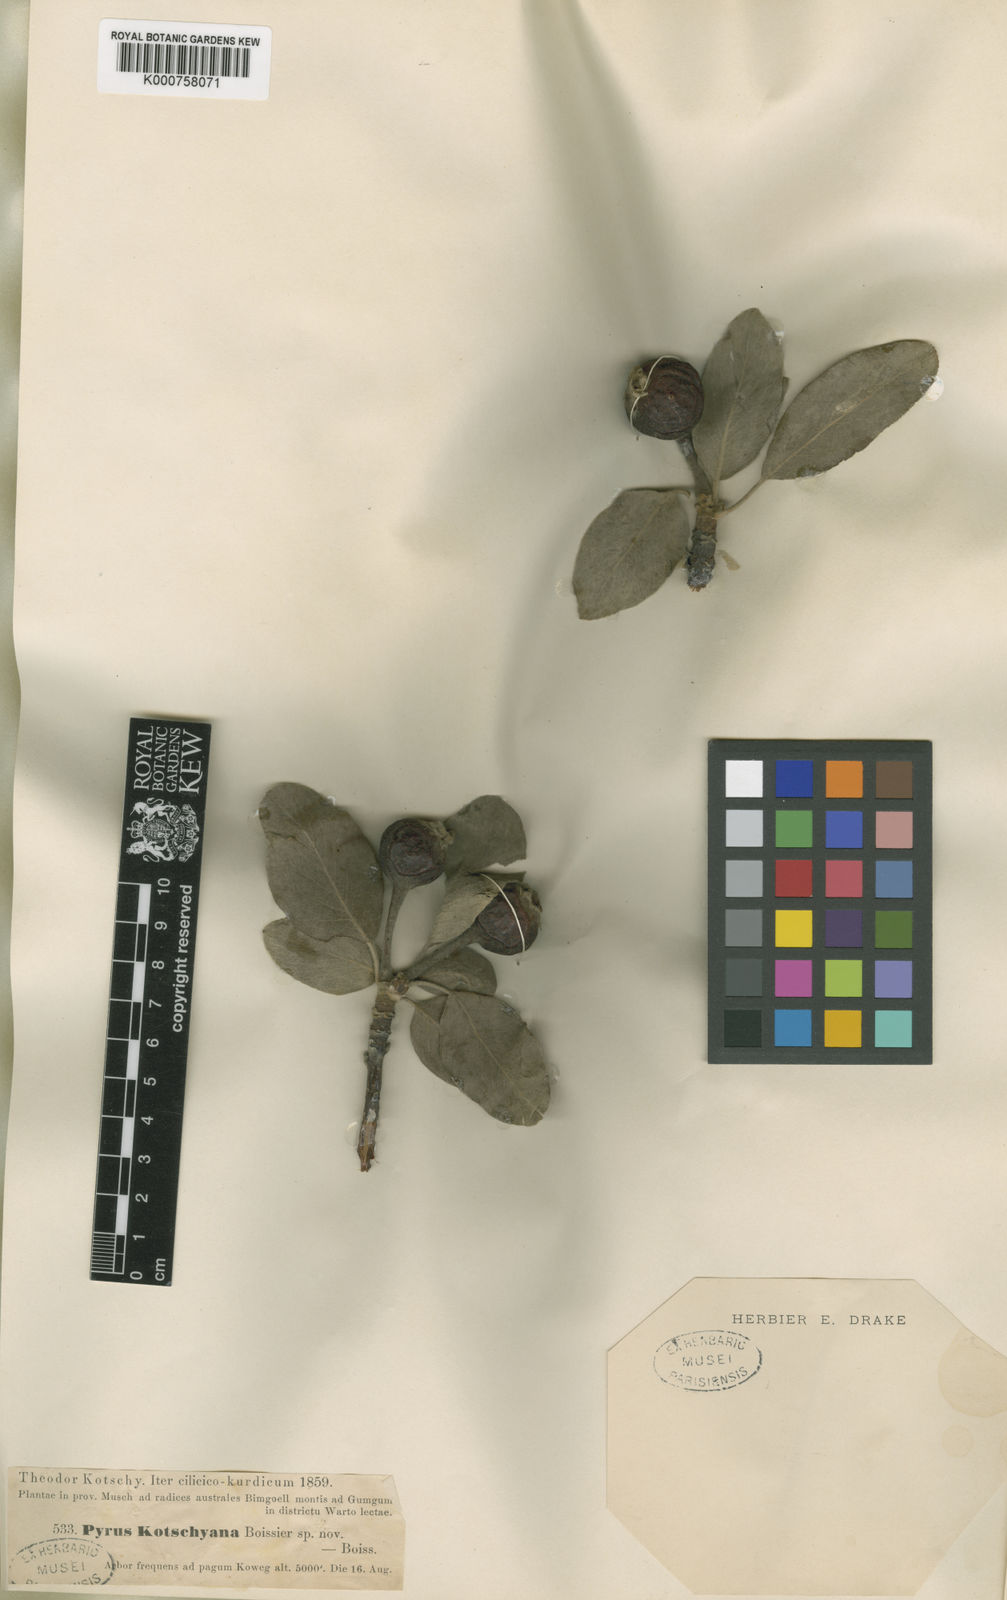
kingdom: Plantae
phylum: Tracheophyta
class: Magnoliopsida
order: Rosales
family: Rosaceae
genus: Pyrus
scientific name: Pyrus
